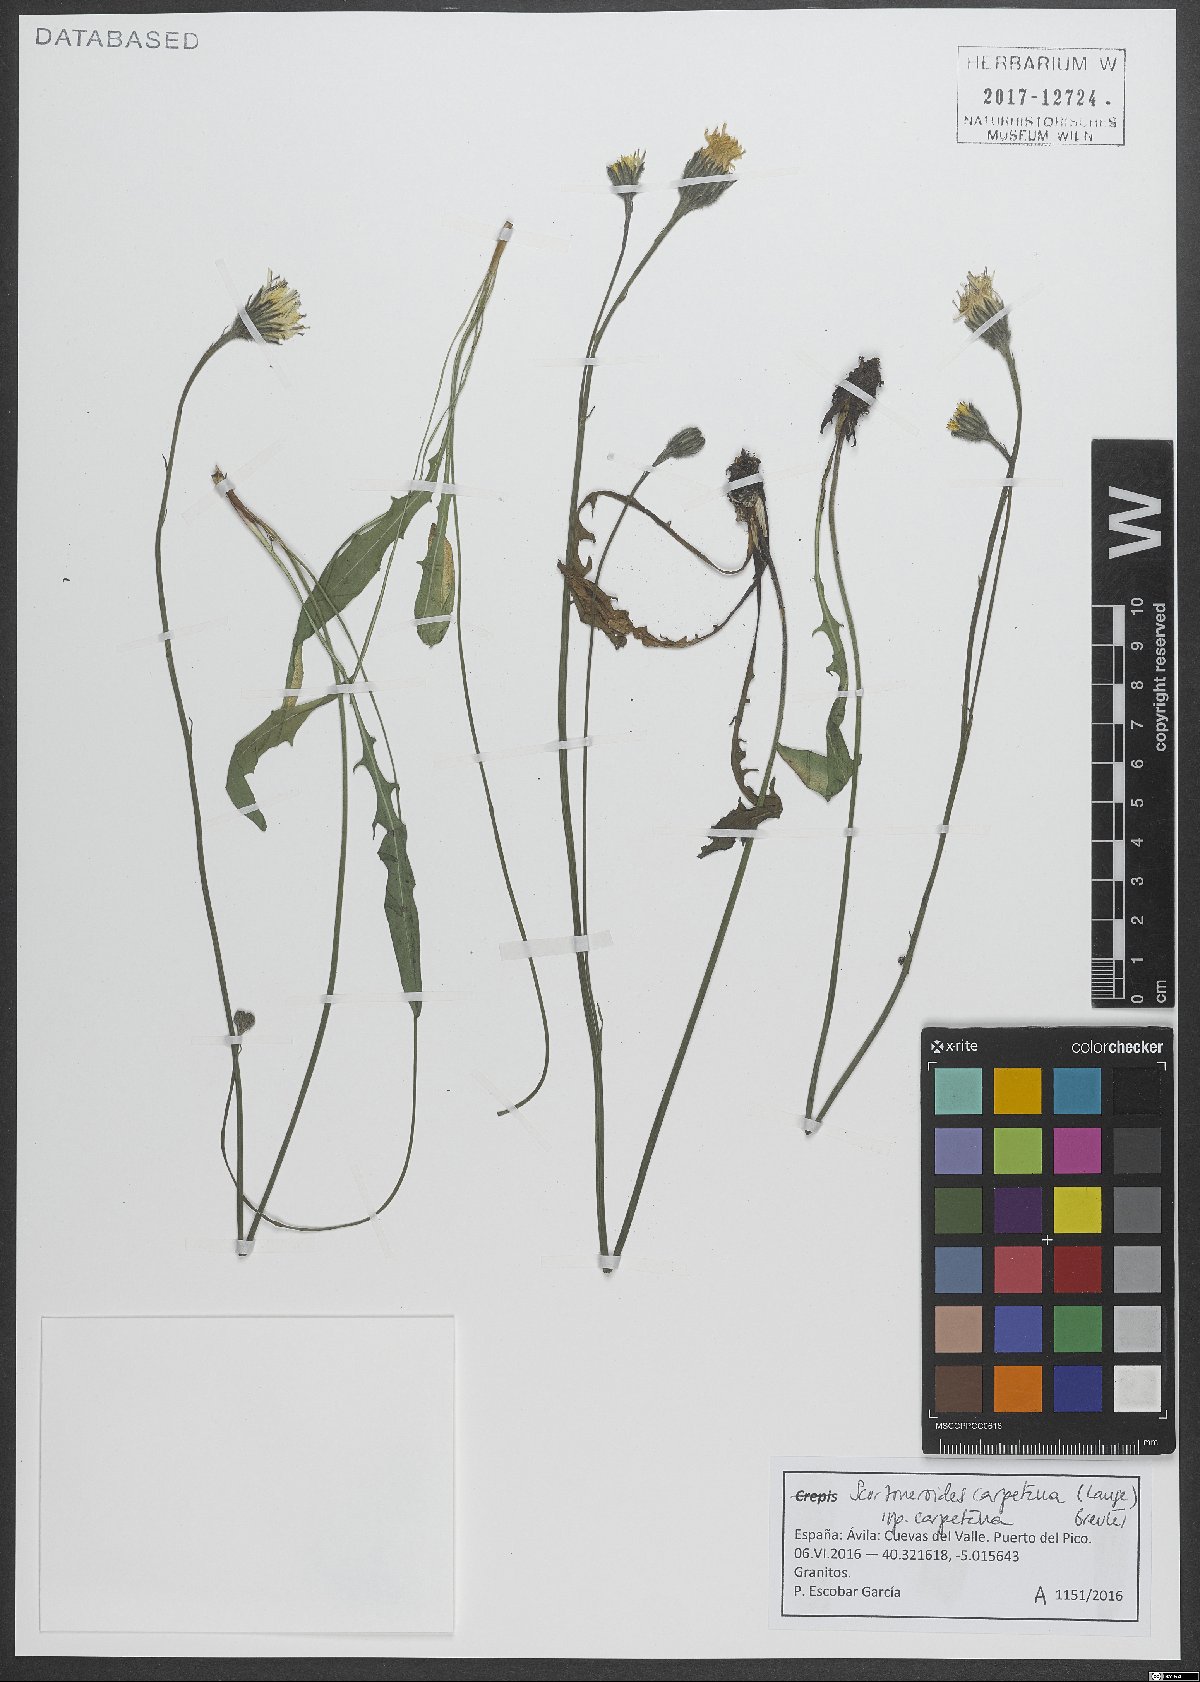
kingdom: Plantae
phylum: Tracheophyta
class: Magnoliopsida
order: Asterales
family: Asteraceae
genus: Scorzoneroides
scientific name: Scorzoneroides carpetana
